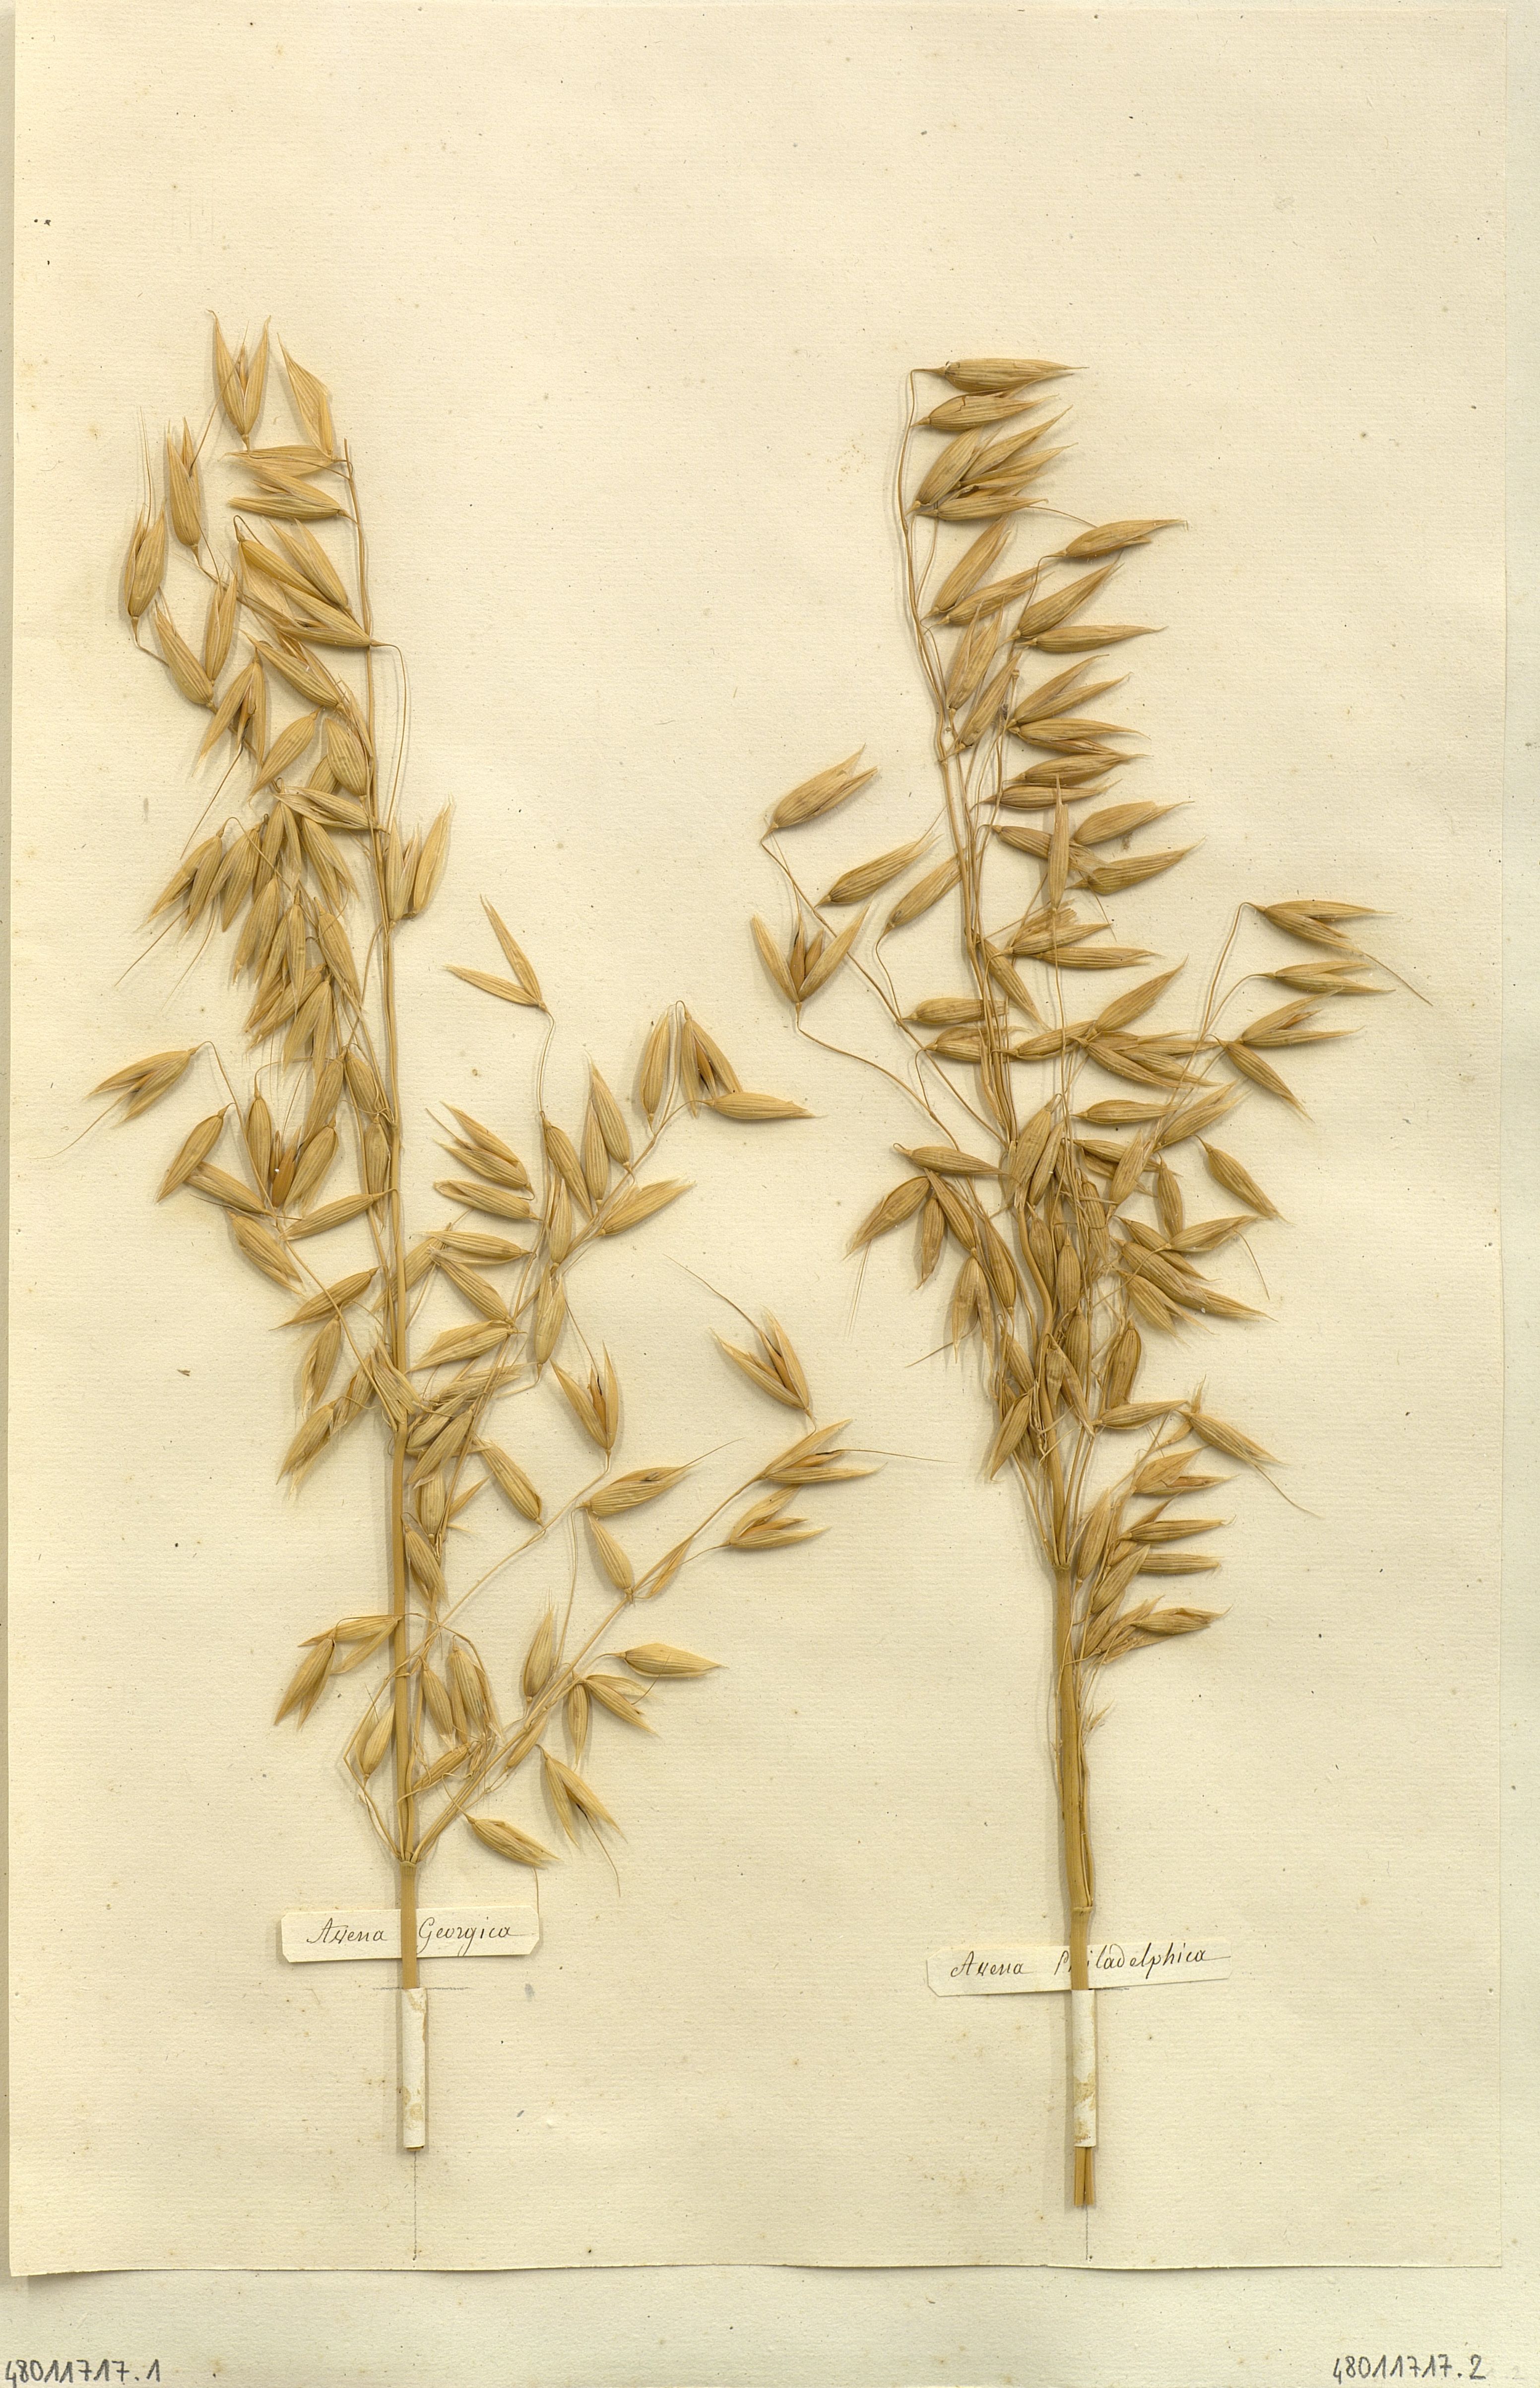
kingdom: Plantae
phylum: Tracheophyta
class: Liliopsida
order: Poales
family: Poaceae
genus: Avena
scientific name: Avena
